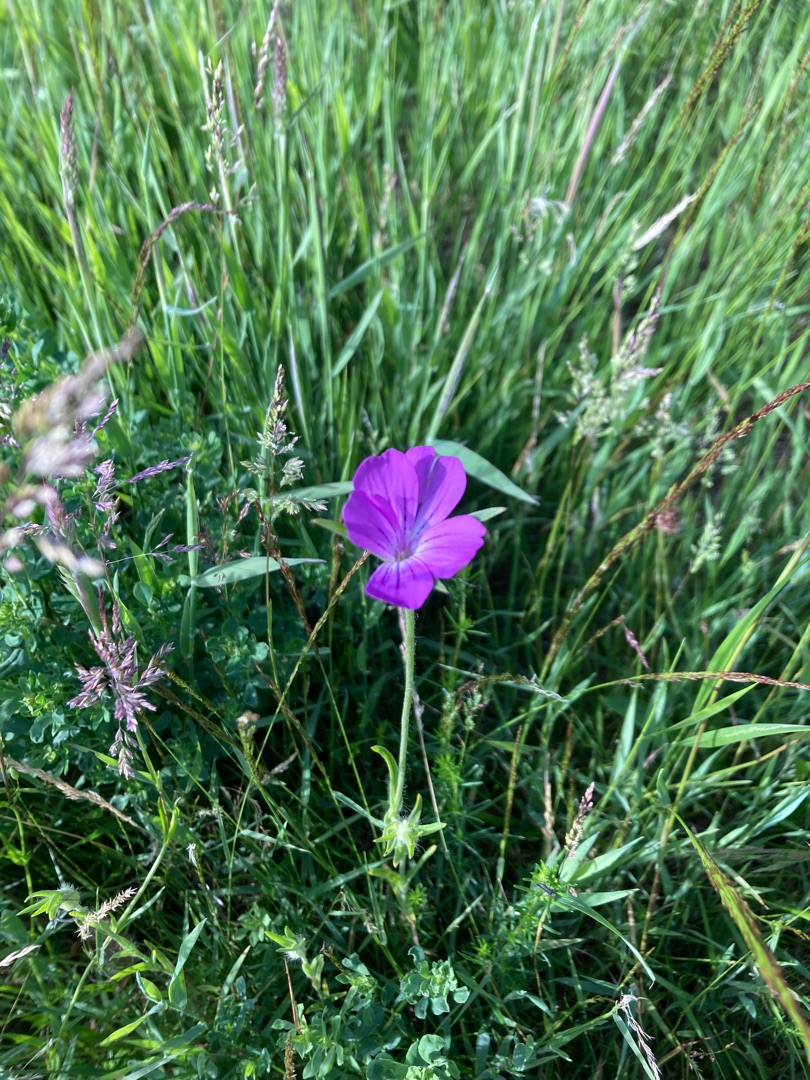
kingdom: Plantae
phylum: Tracheophyta
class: Magnoliopsida
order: Caryophyllales
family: Caryophyllaceae
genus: Agrostemma
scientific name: Agrostemma githago
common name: Klinte
